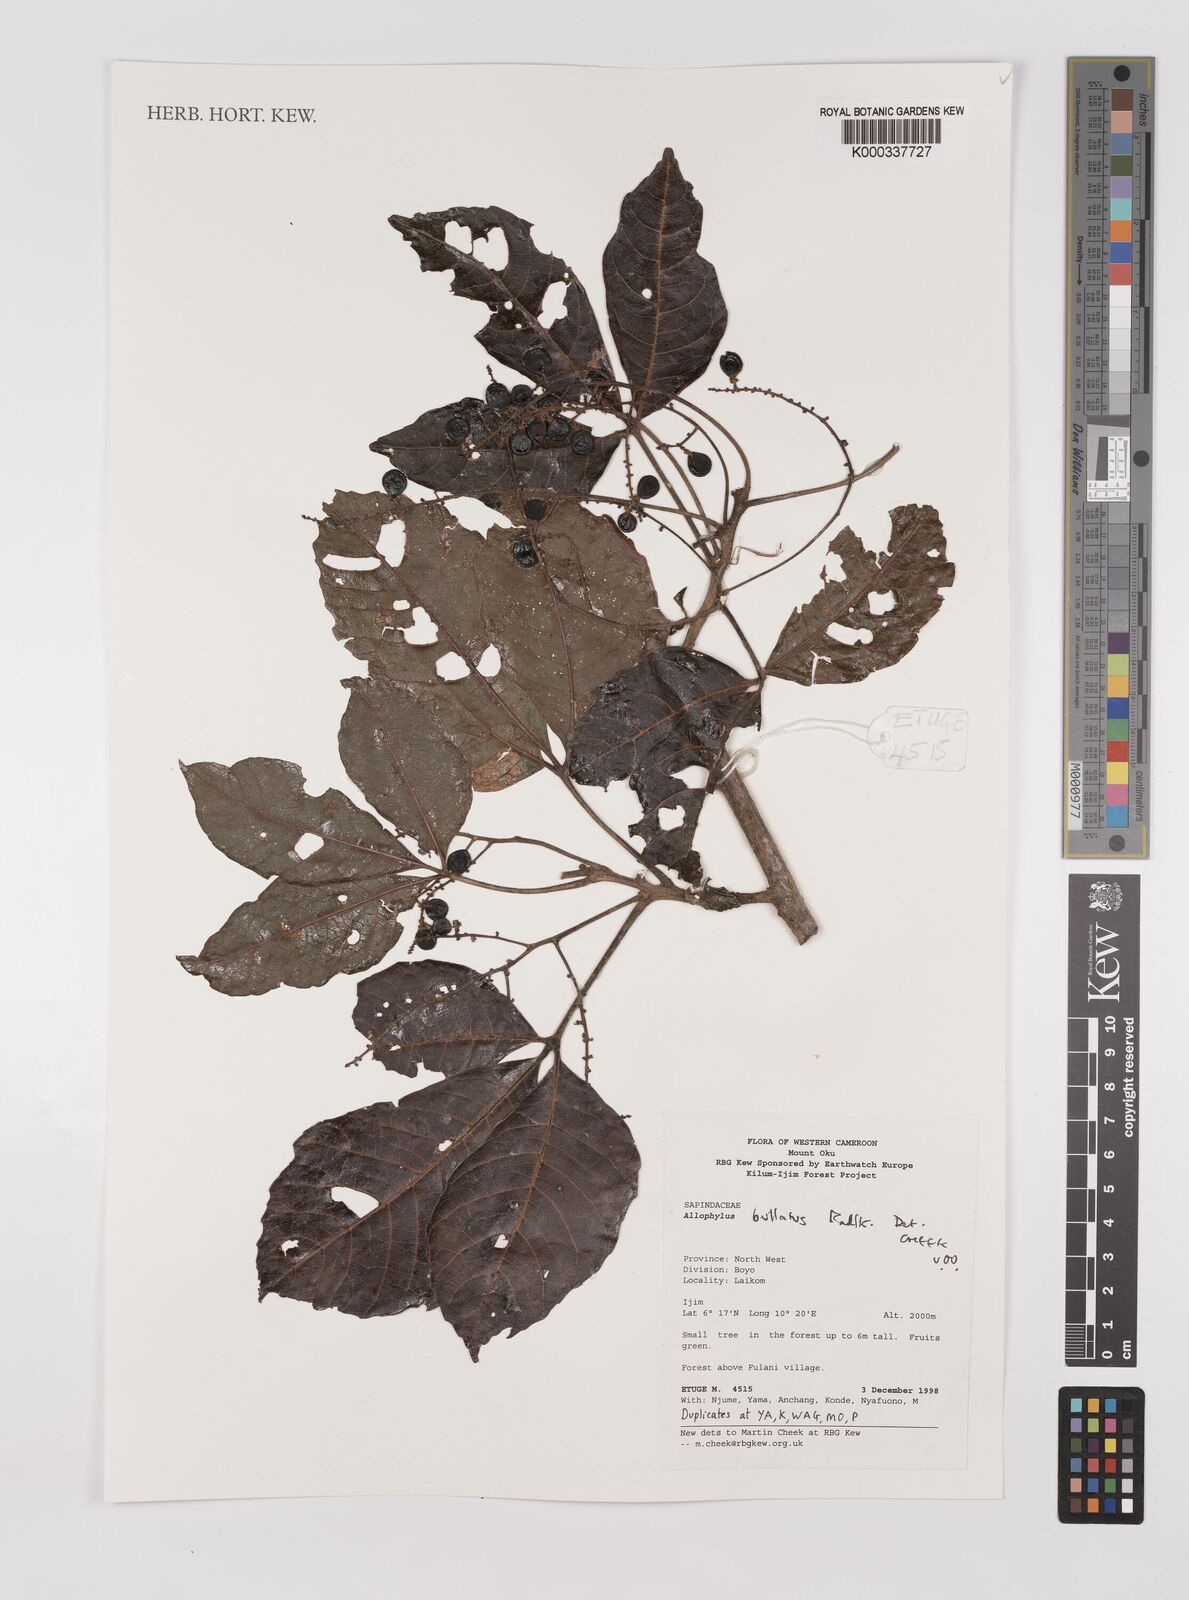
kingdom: Plantae
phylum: Tracheophyta
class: Magnoliopsida
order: Sapindales
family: Sapindaceae
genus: Allophylus
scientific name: Allophylus bullatus
